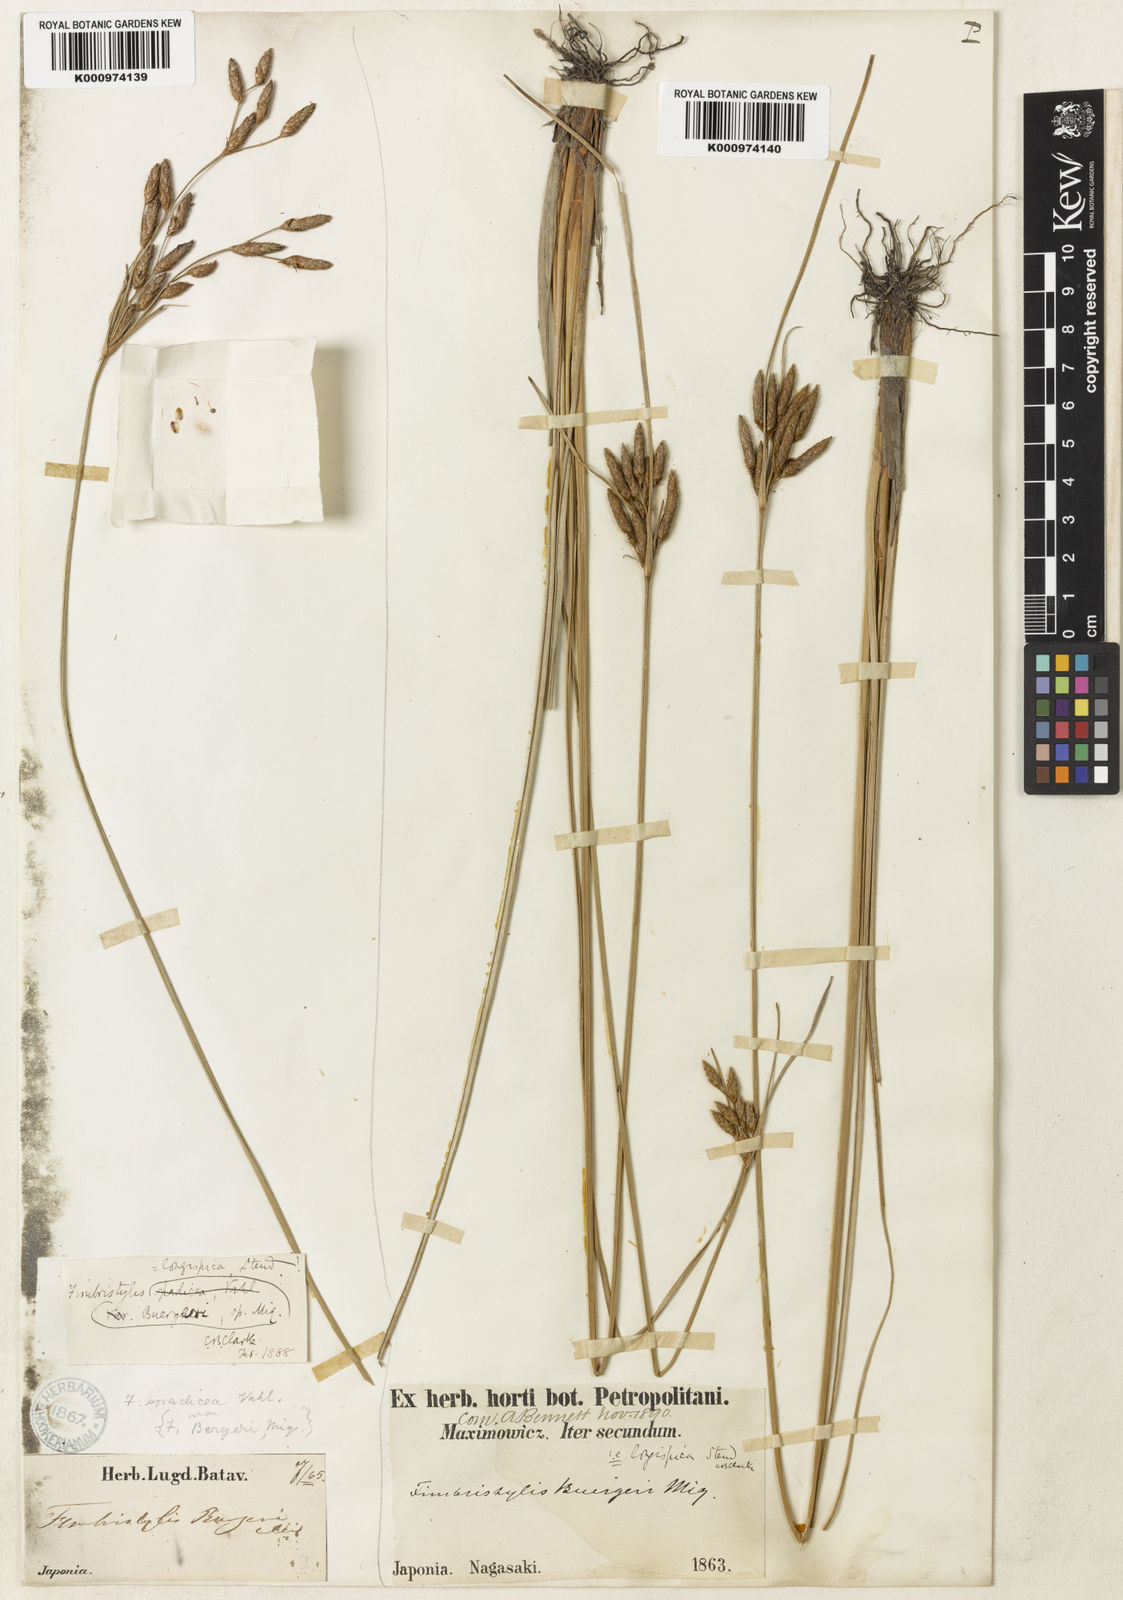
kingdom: Plantae
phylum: Tracheophyta
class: Liliopsida
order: Poales
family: Cyperaceae
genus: Fimbristylis
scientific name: Fimbristylis longispica
